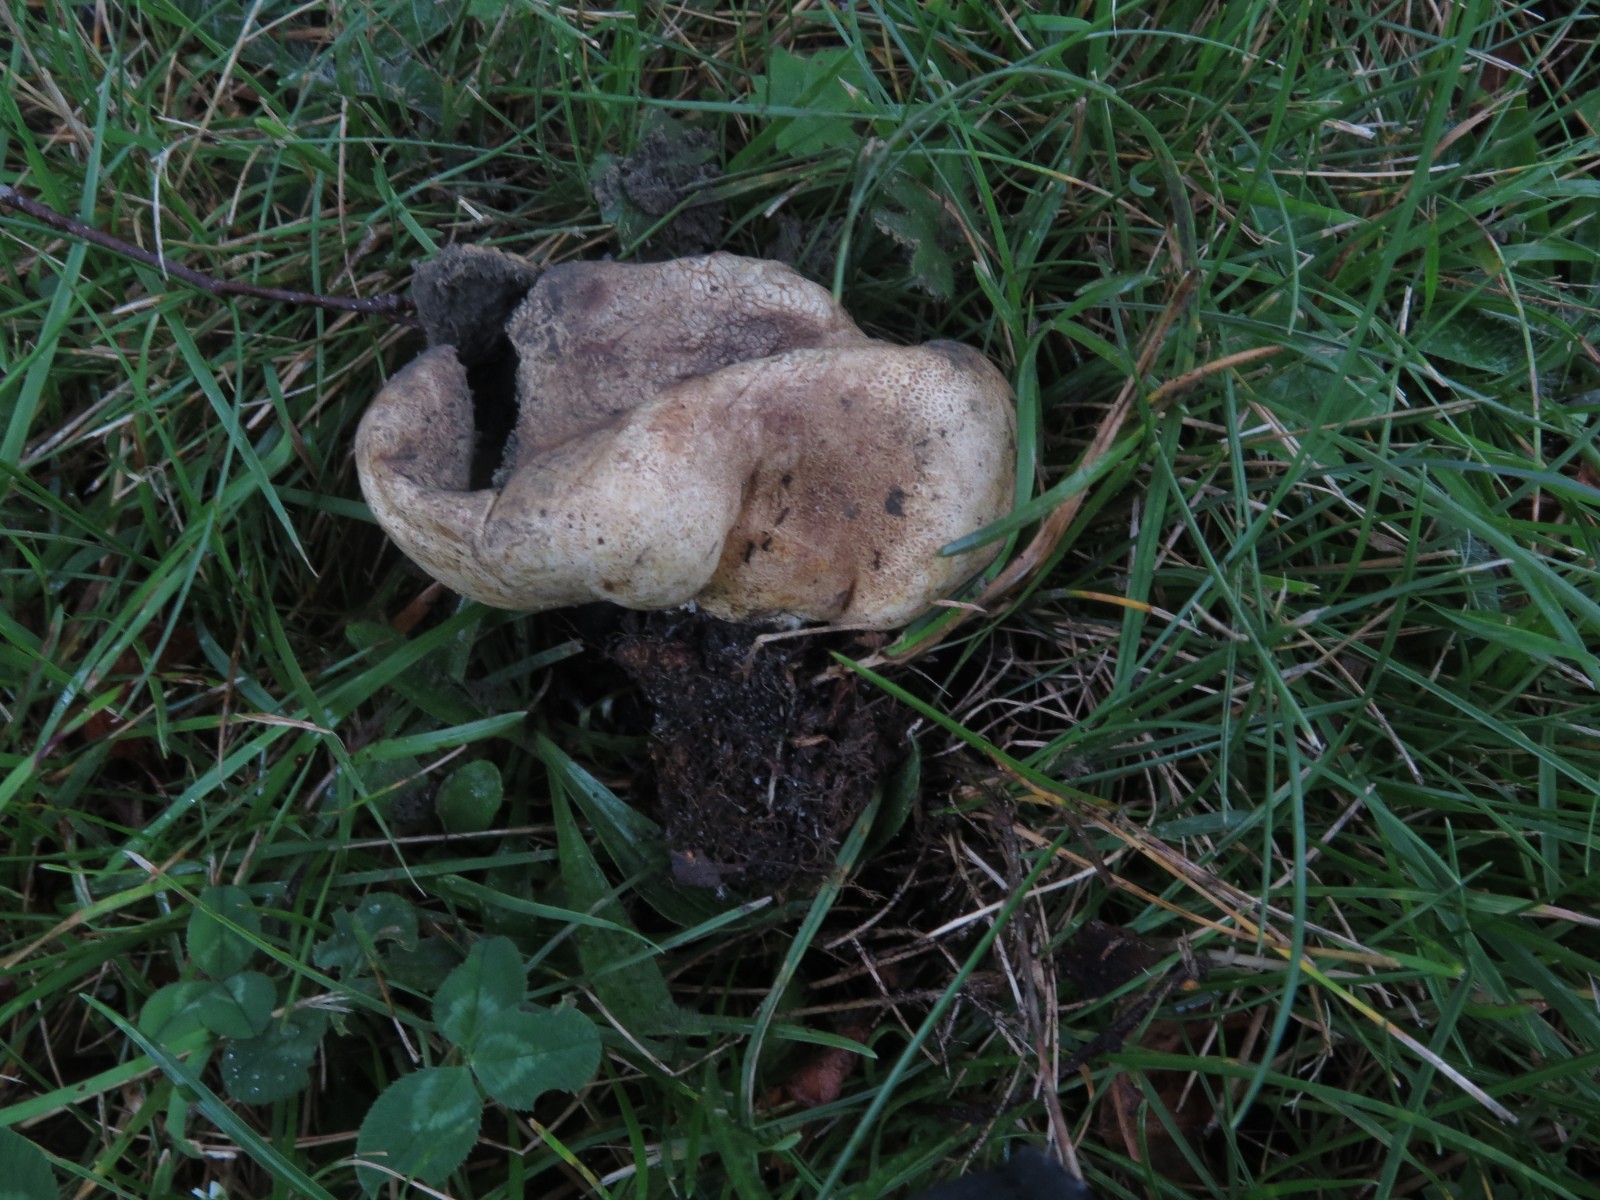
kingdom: Fungi
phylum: Basidiomycota
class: Agaricomycetes
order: Boletales
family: Sclerodermataceae
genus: Scleroderma
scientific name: Scleroderma verrucosum
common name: stilket bruskbold
